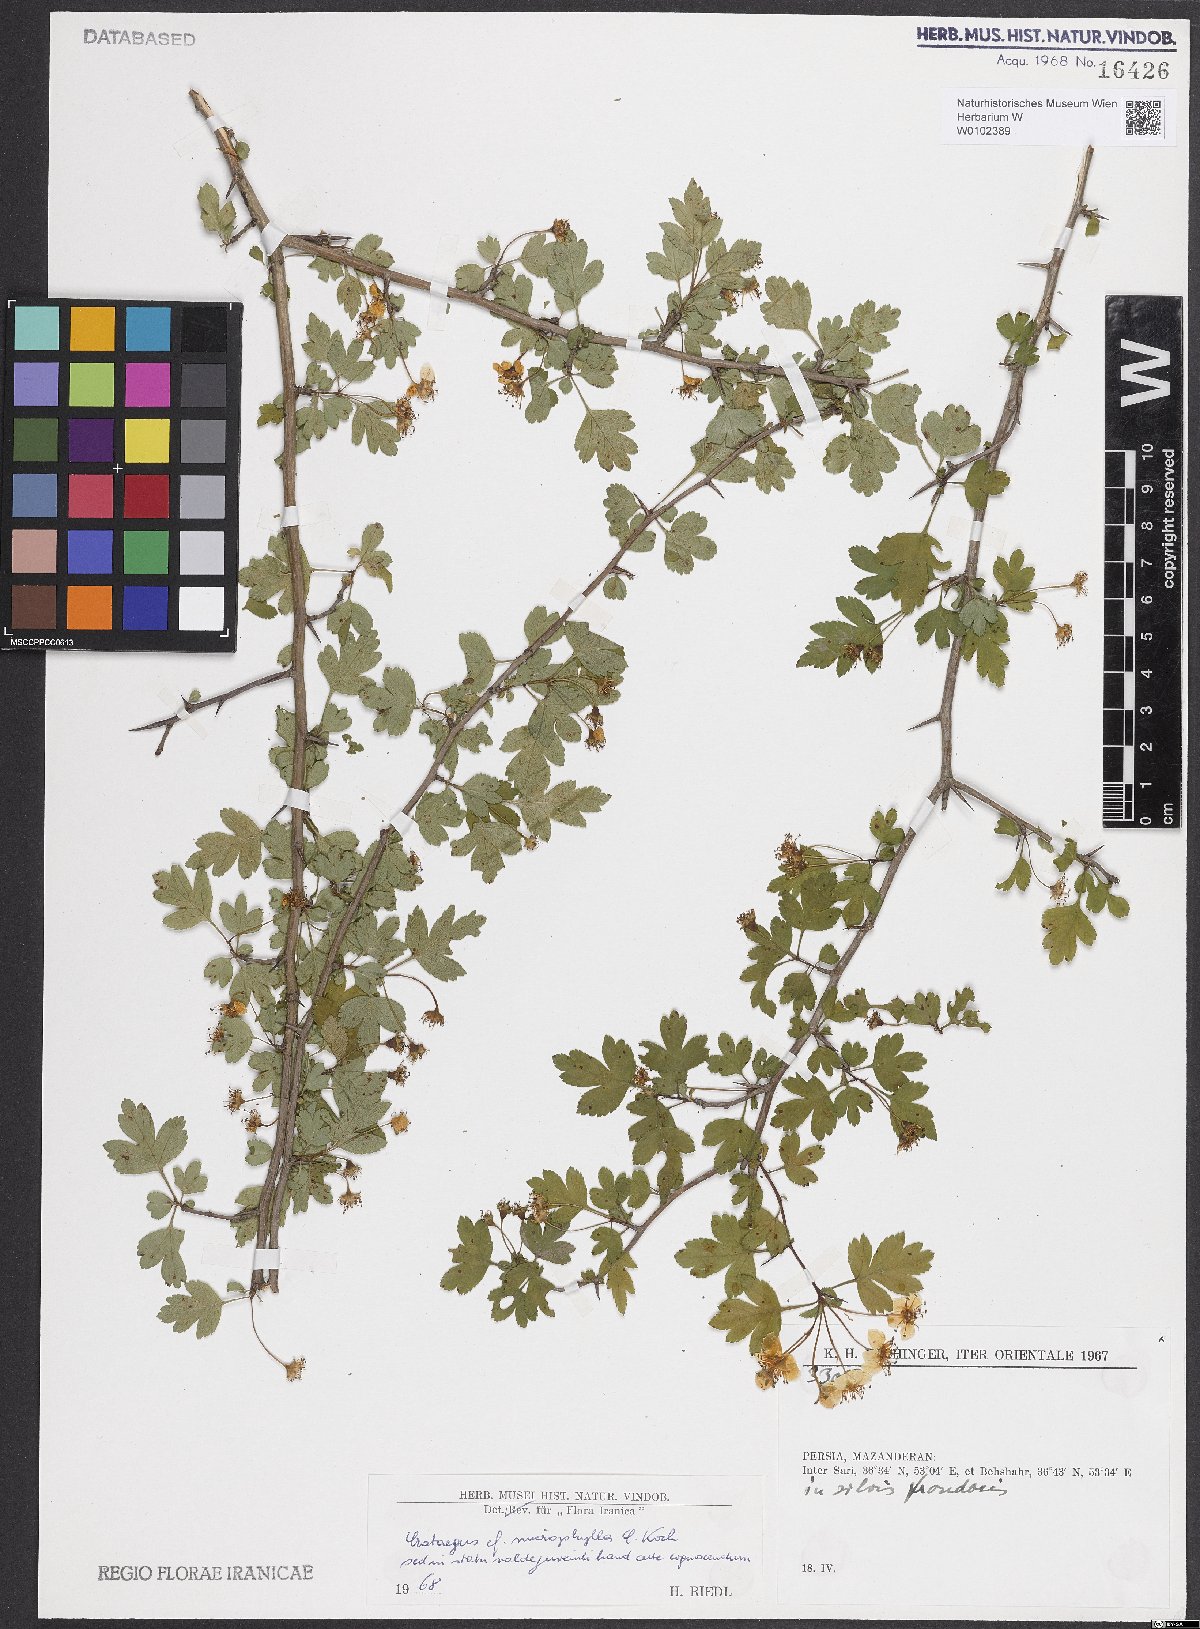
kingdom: Plantae
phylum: Tracheophyta
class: Magnoliopsida
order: Rosales
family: Rosaceae
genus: Crataegus
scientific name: Crataegus microphylla
